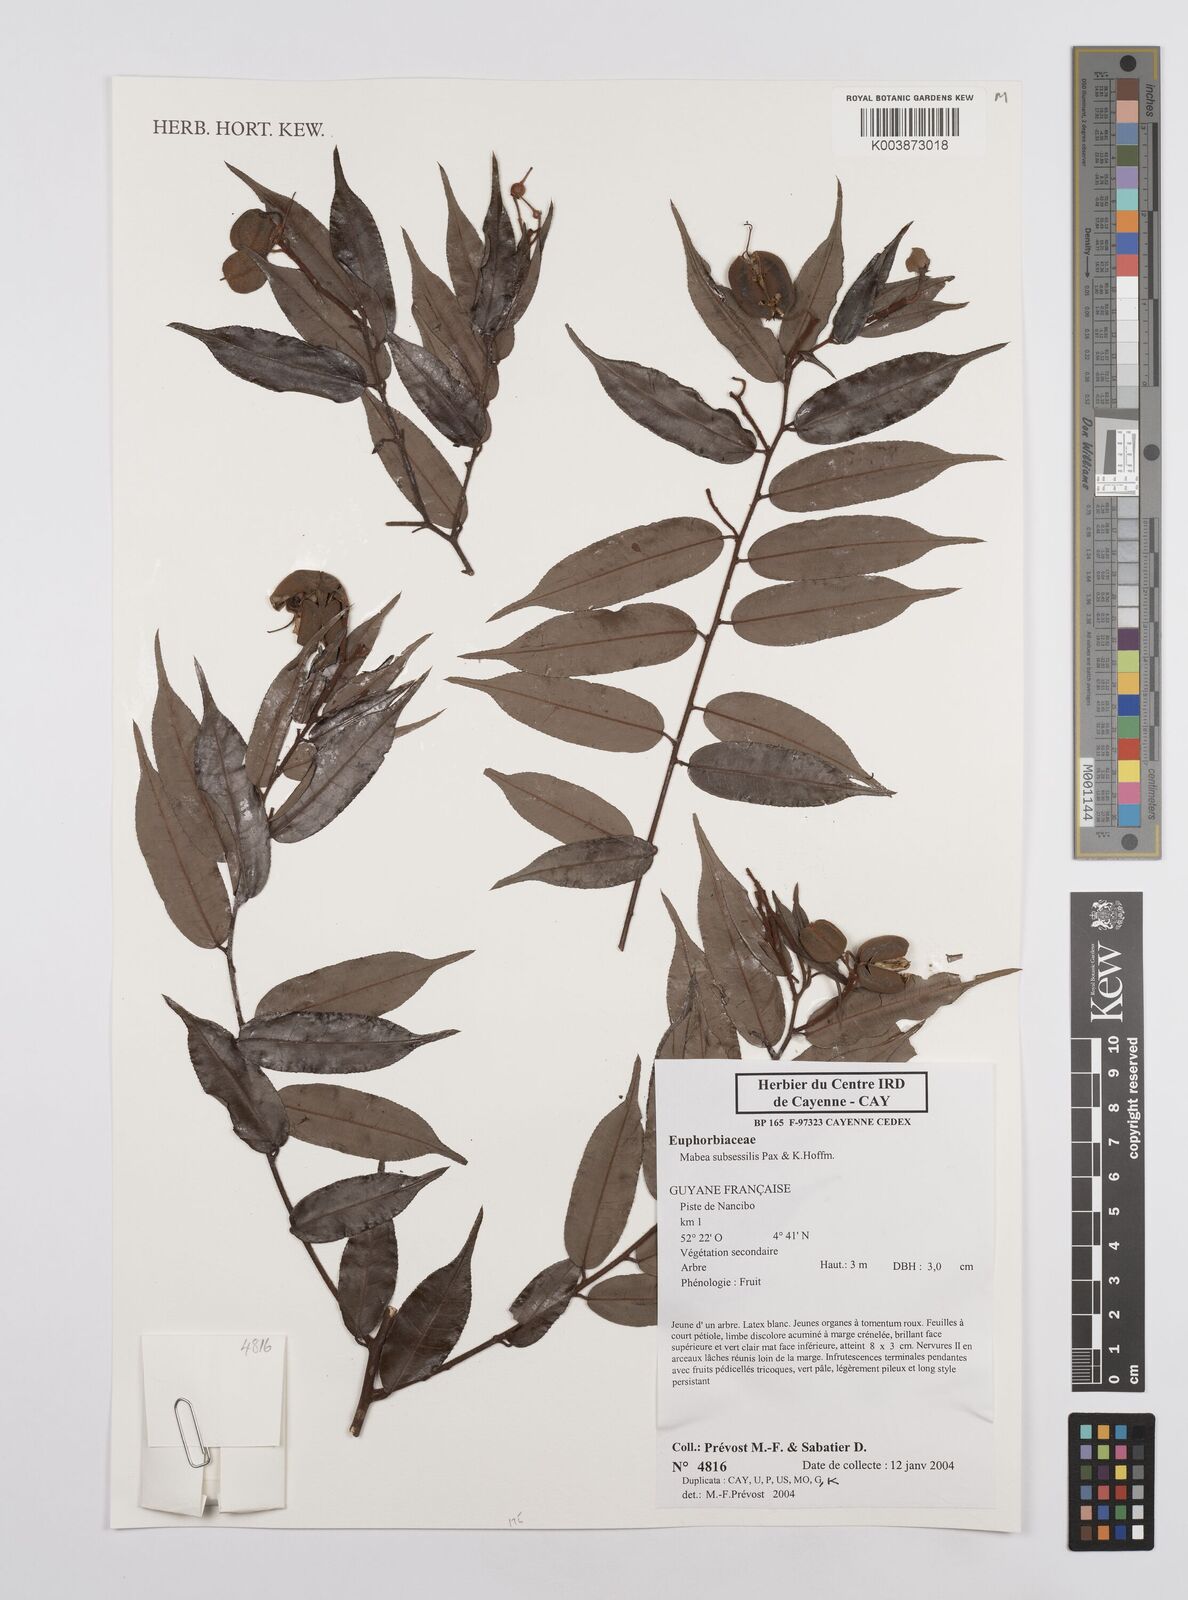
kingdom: Plantae
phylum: Tracheophyta
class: Magnoliopsida
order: Malpighiales
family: Euphorbiaceae
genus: Mabea
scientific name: Mabea subsessilis
